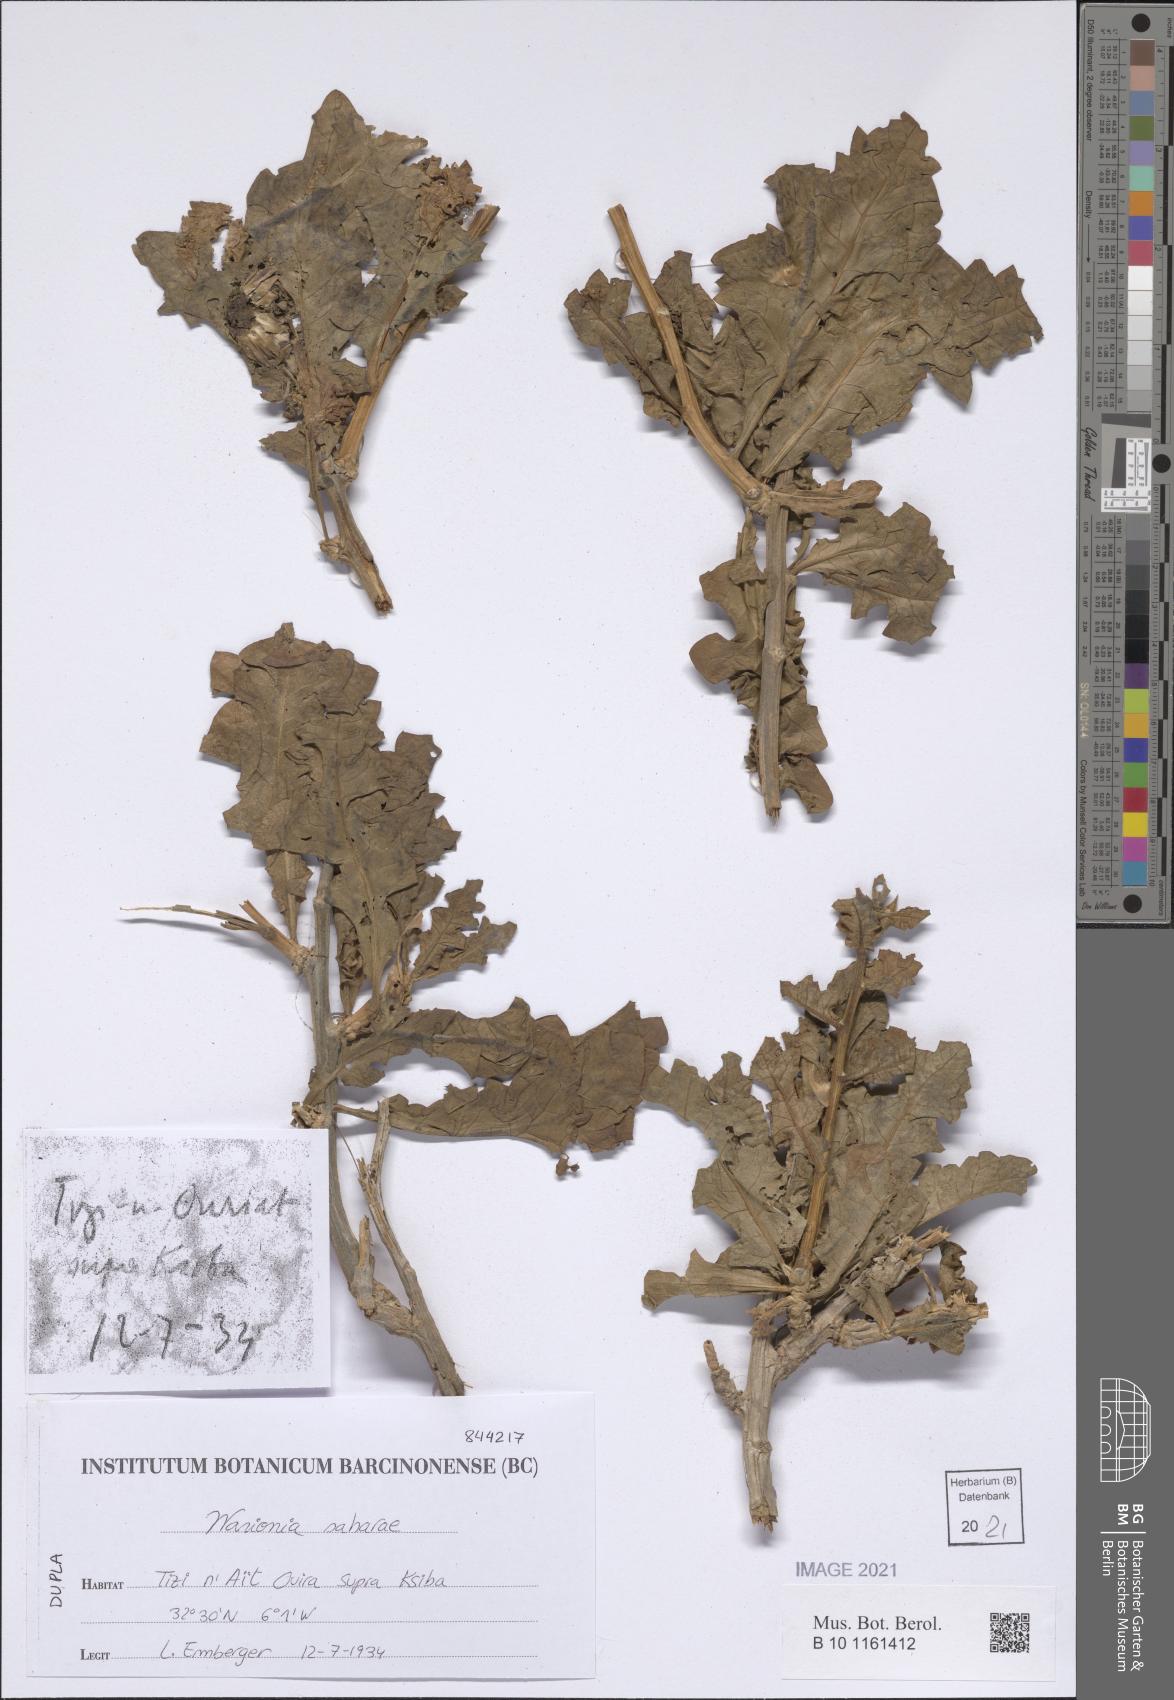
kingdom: Plantae
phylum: Tracheophyta
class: Magnoliopsida
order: Asterales
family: Asteraceae
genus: Warionia
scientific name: Warionia saharae
